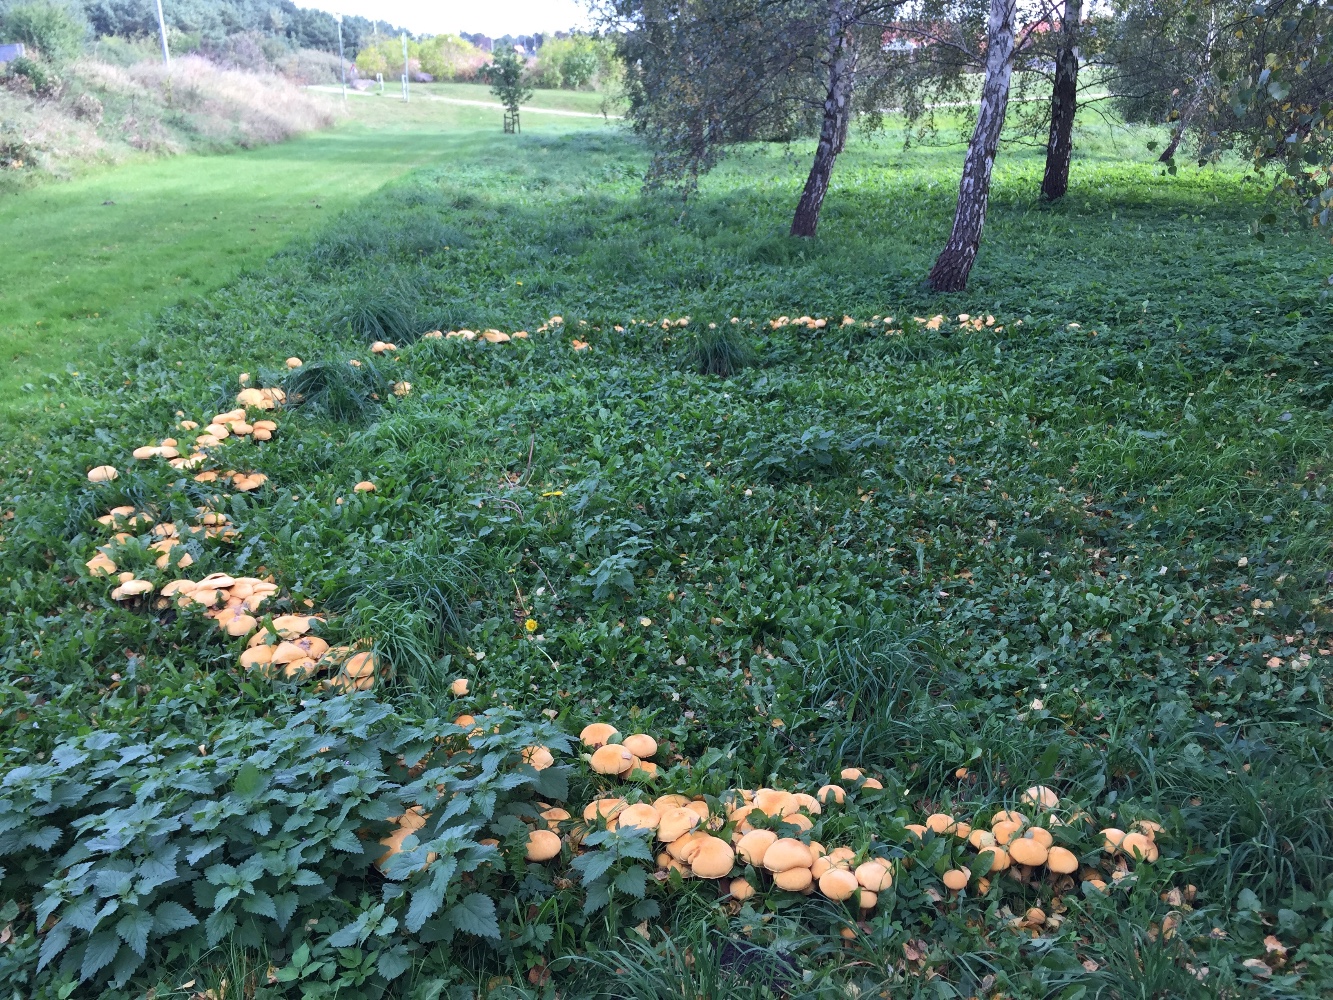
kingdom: Fungi
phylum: Basidiomycota
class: Agaricomycetes
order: Agaricales
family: Tricholomataceae
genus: Phaeolepiota
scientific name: Phaeolepiota aurea
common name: gyldenhat
